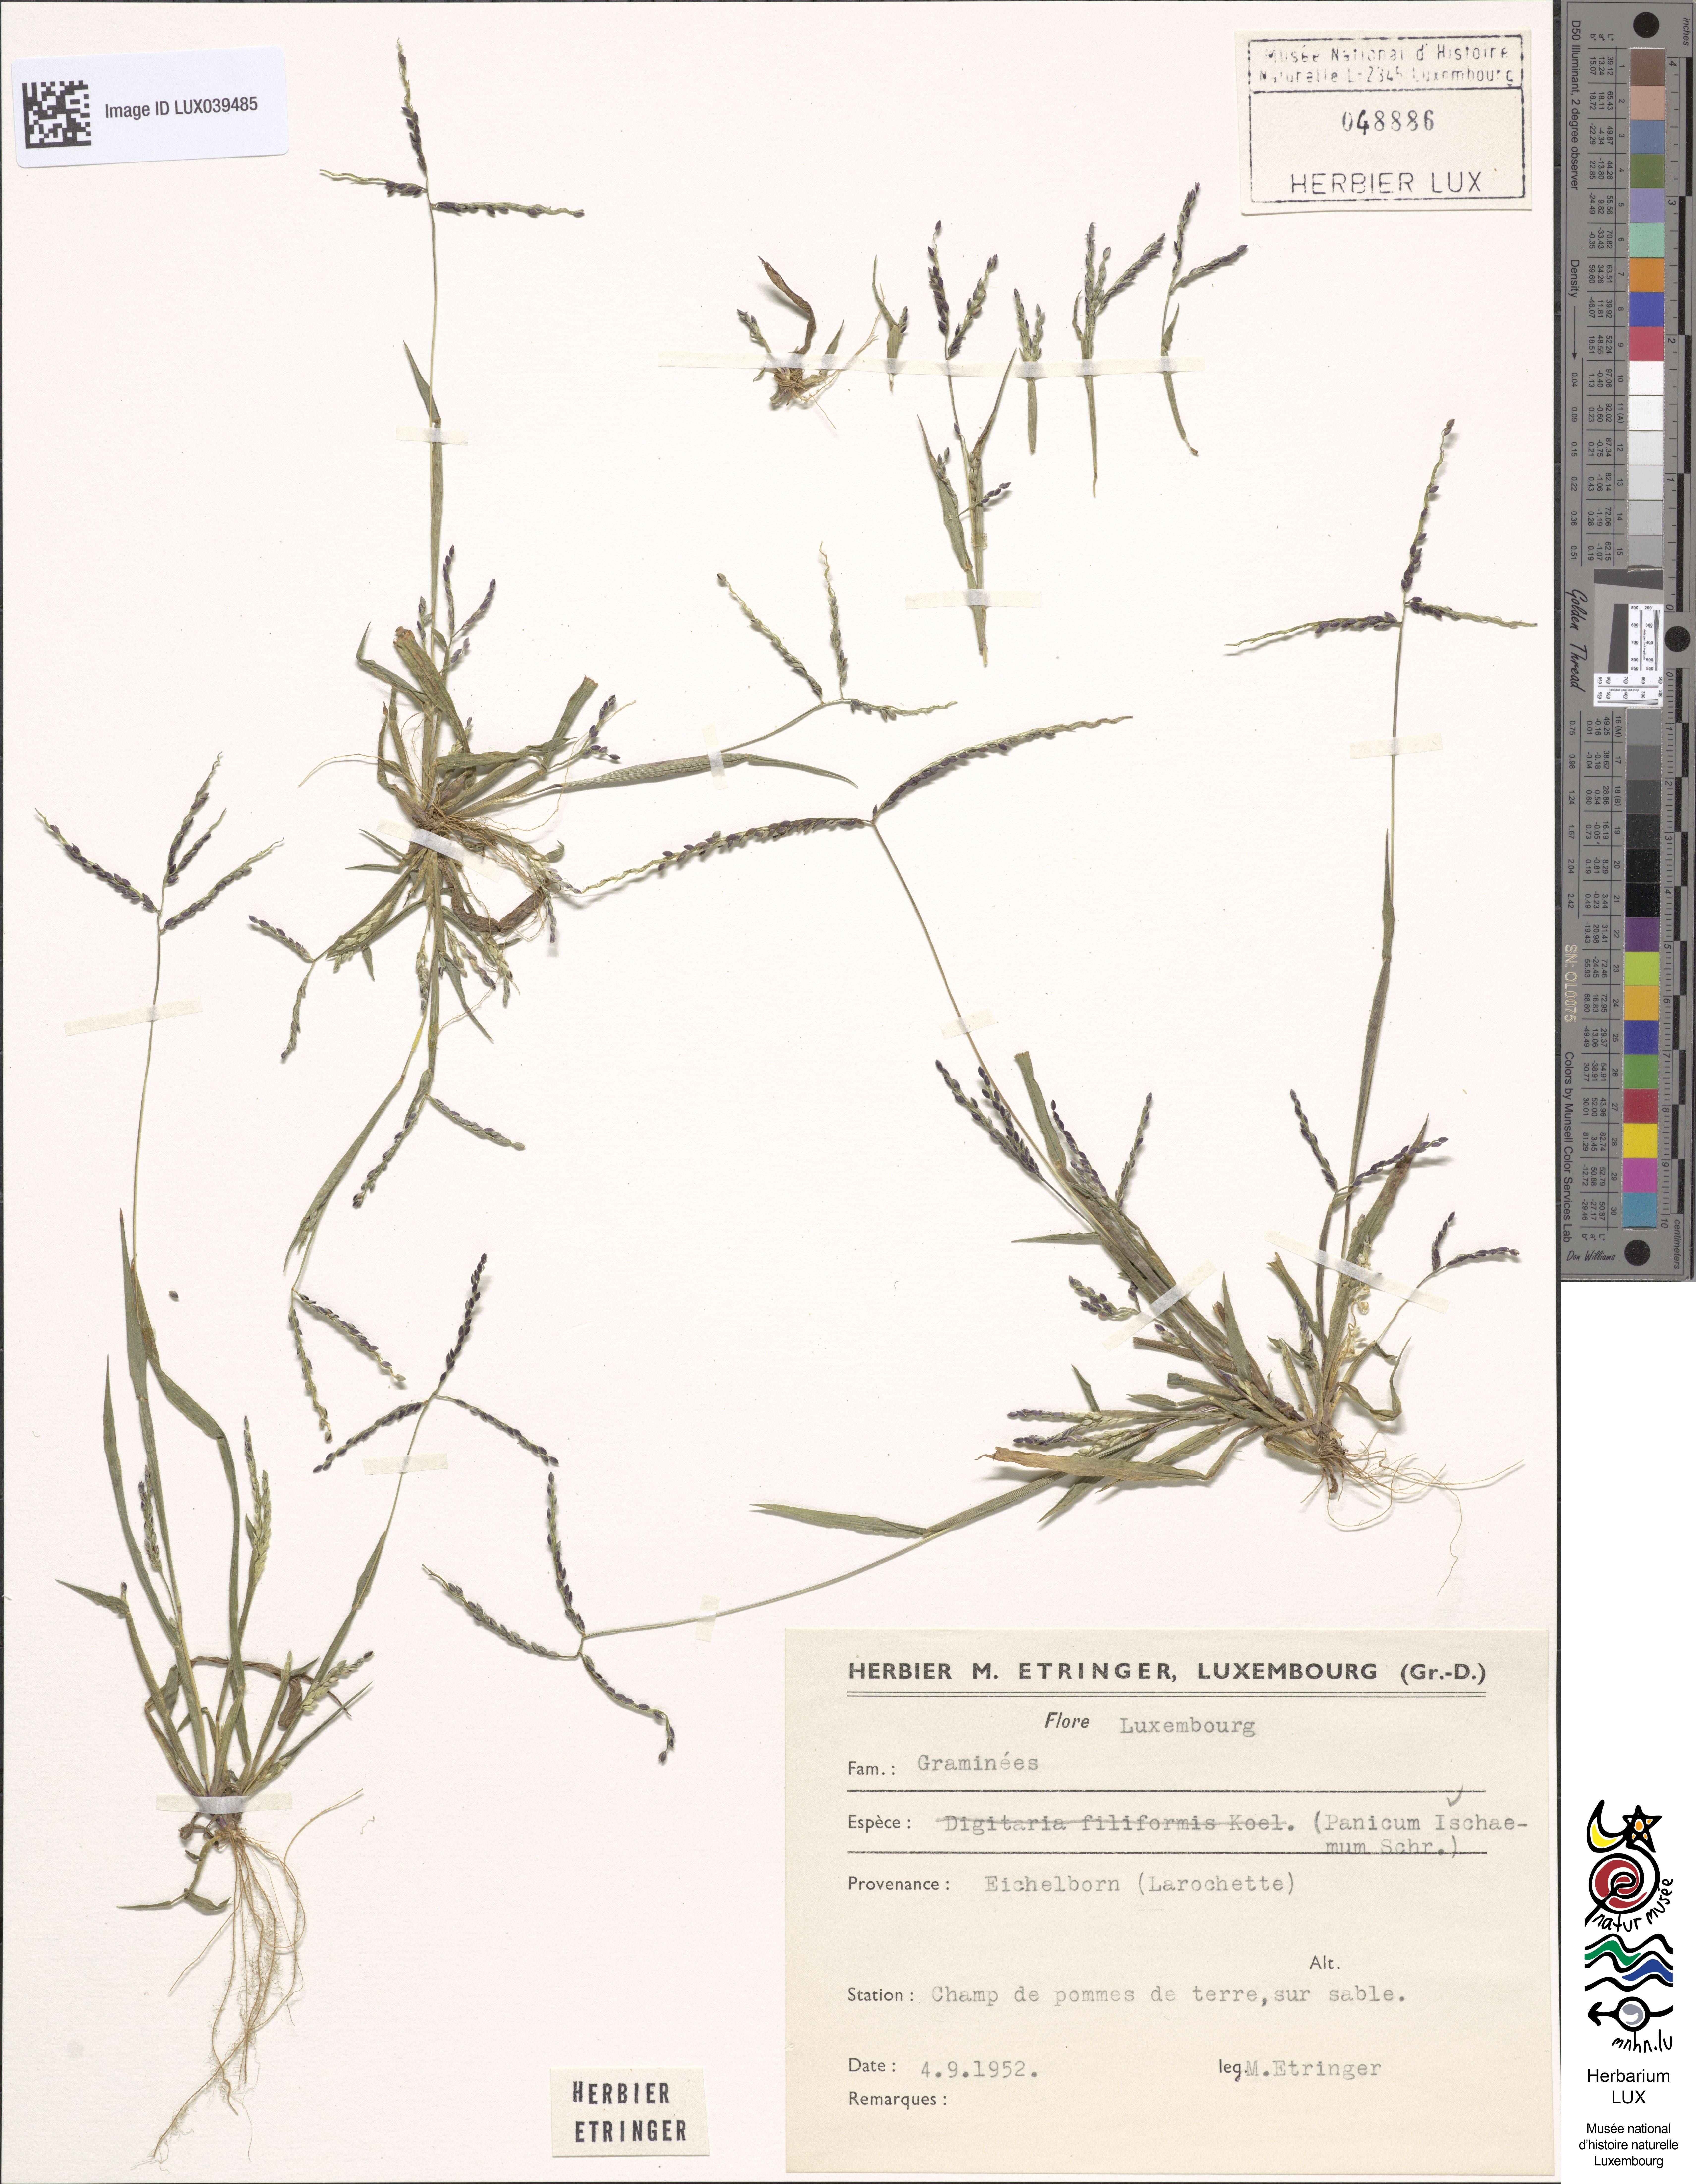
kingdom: Plantae
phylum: Tracheophyta
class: Liliopsida
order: Poales
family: Poaceae
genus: Digitaria
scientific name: Digitaria ischaemum
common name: Smooth crabgrass
